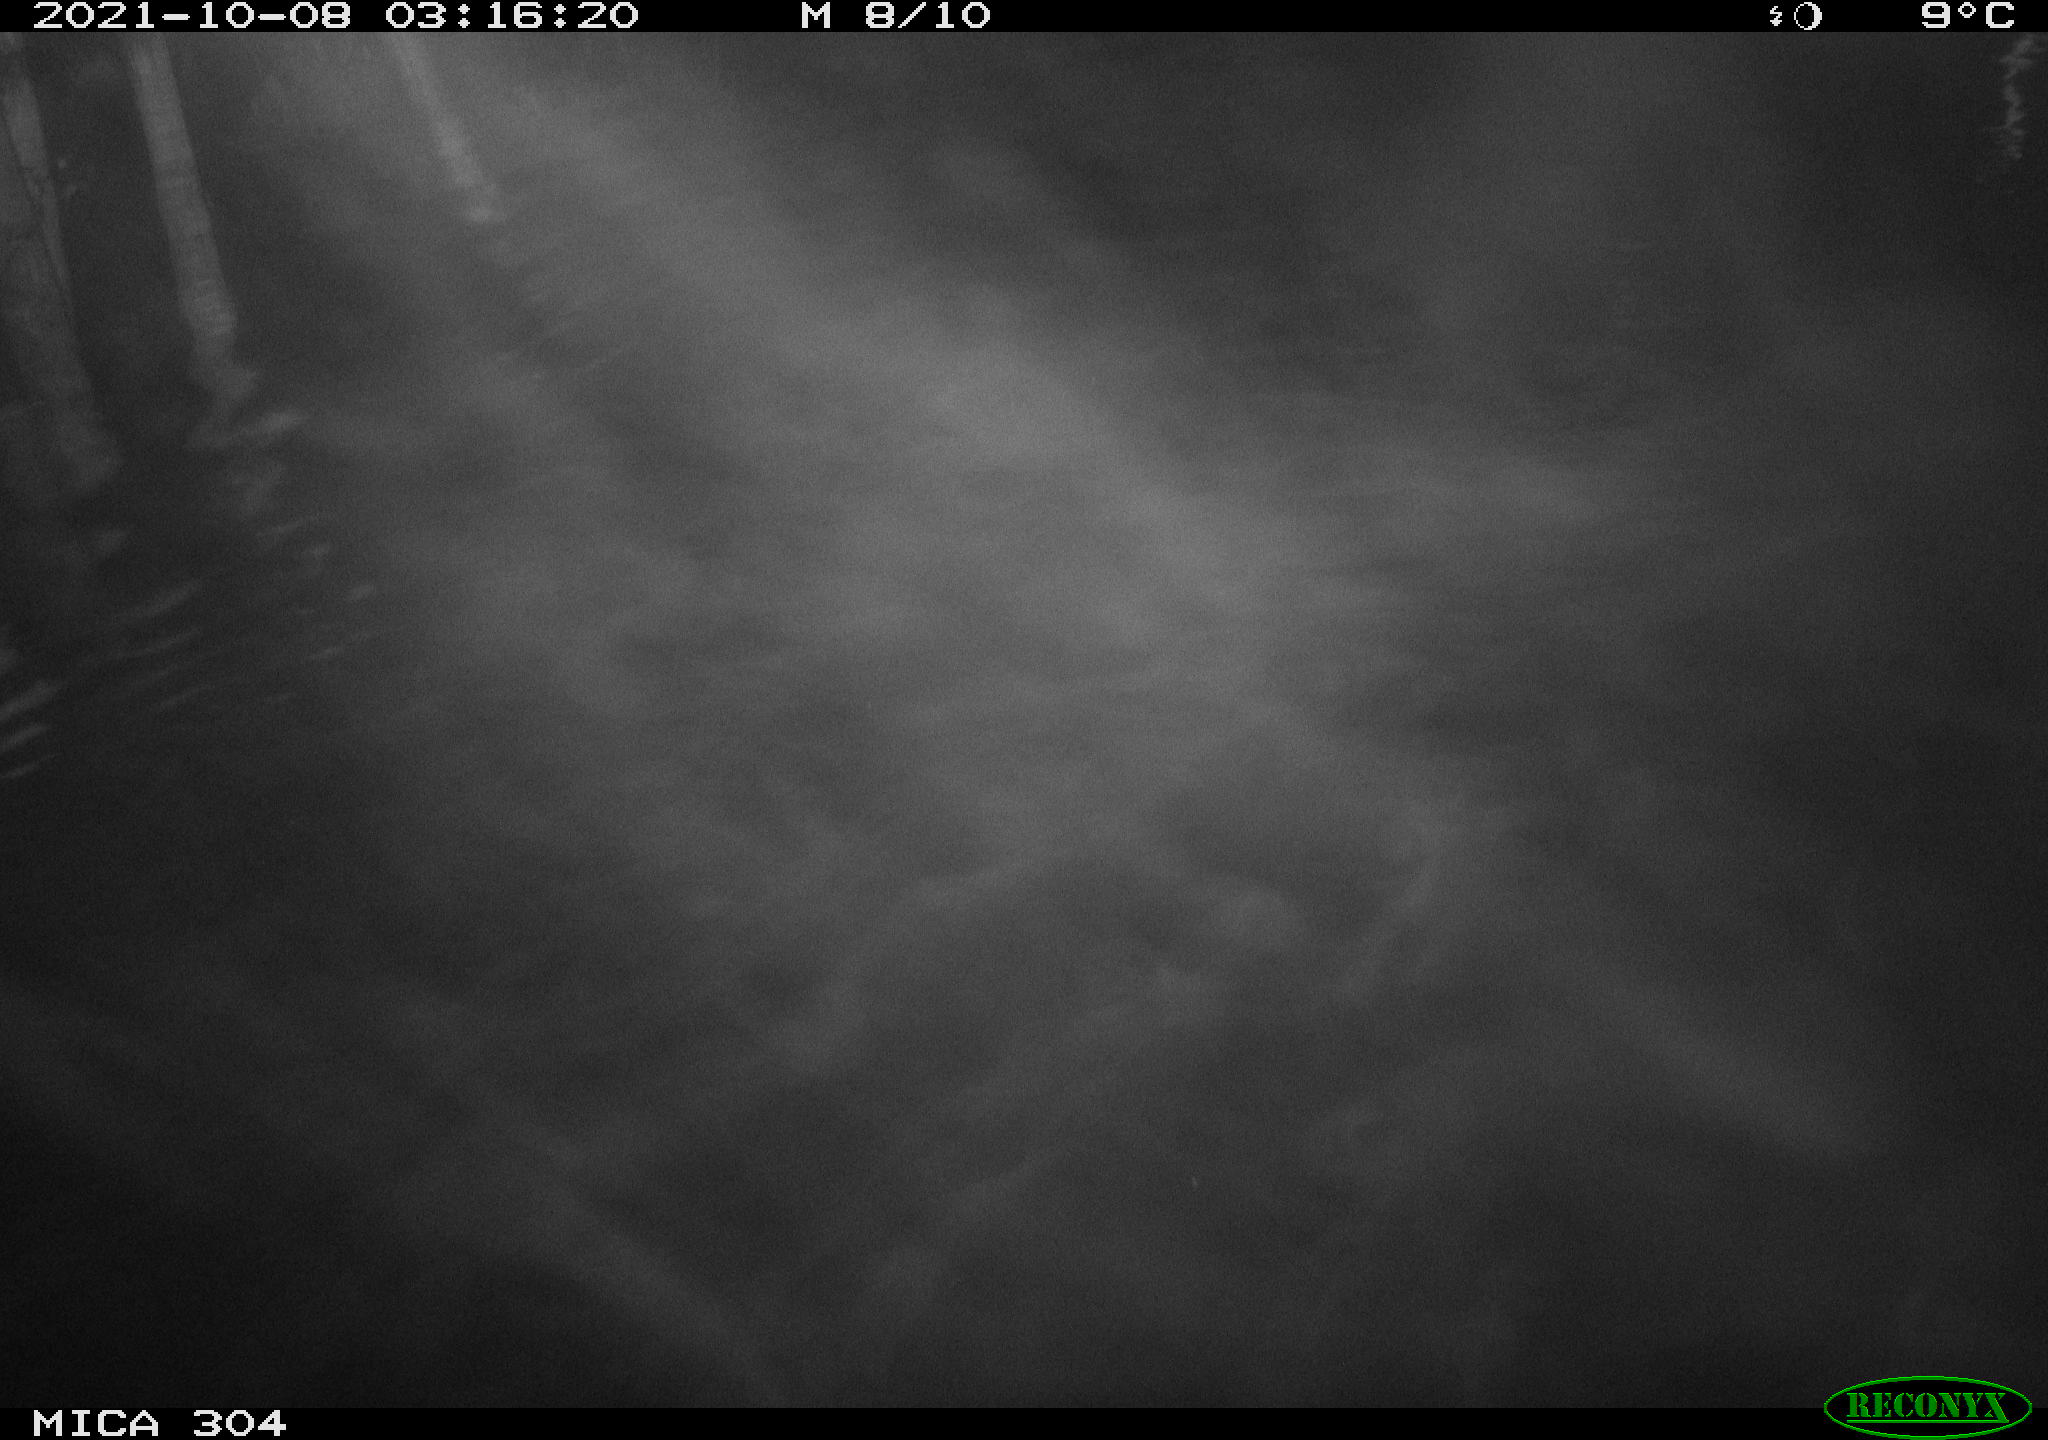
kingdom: Animalia
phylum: Chordata
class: Mammalia
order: Rodentia
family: Cricetidae
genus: Ondatra
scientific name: Ondatra zibethicus
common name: Muskrat
